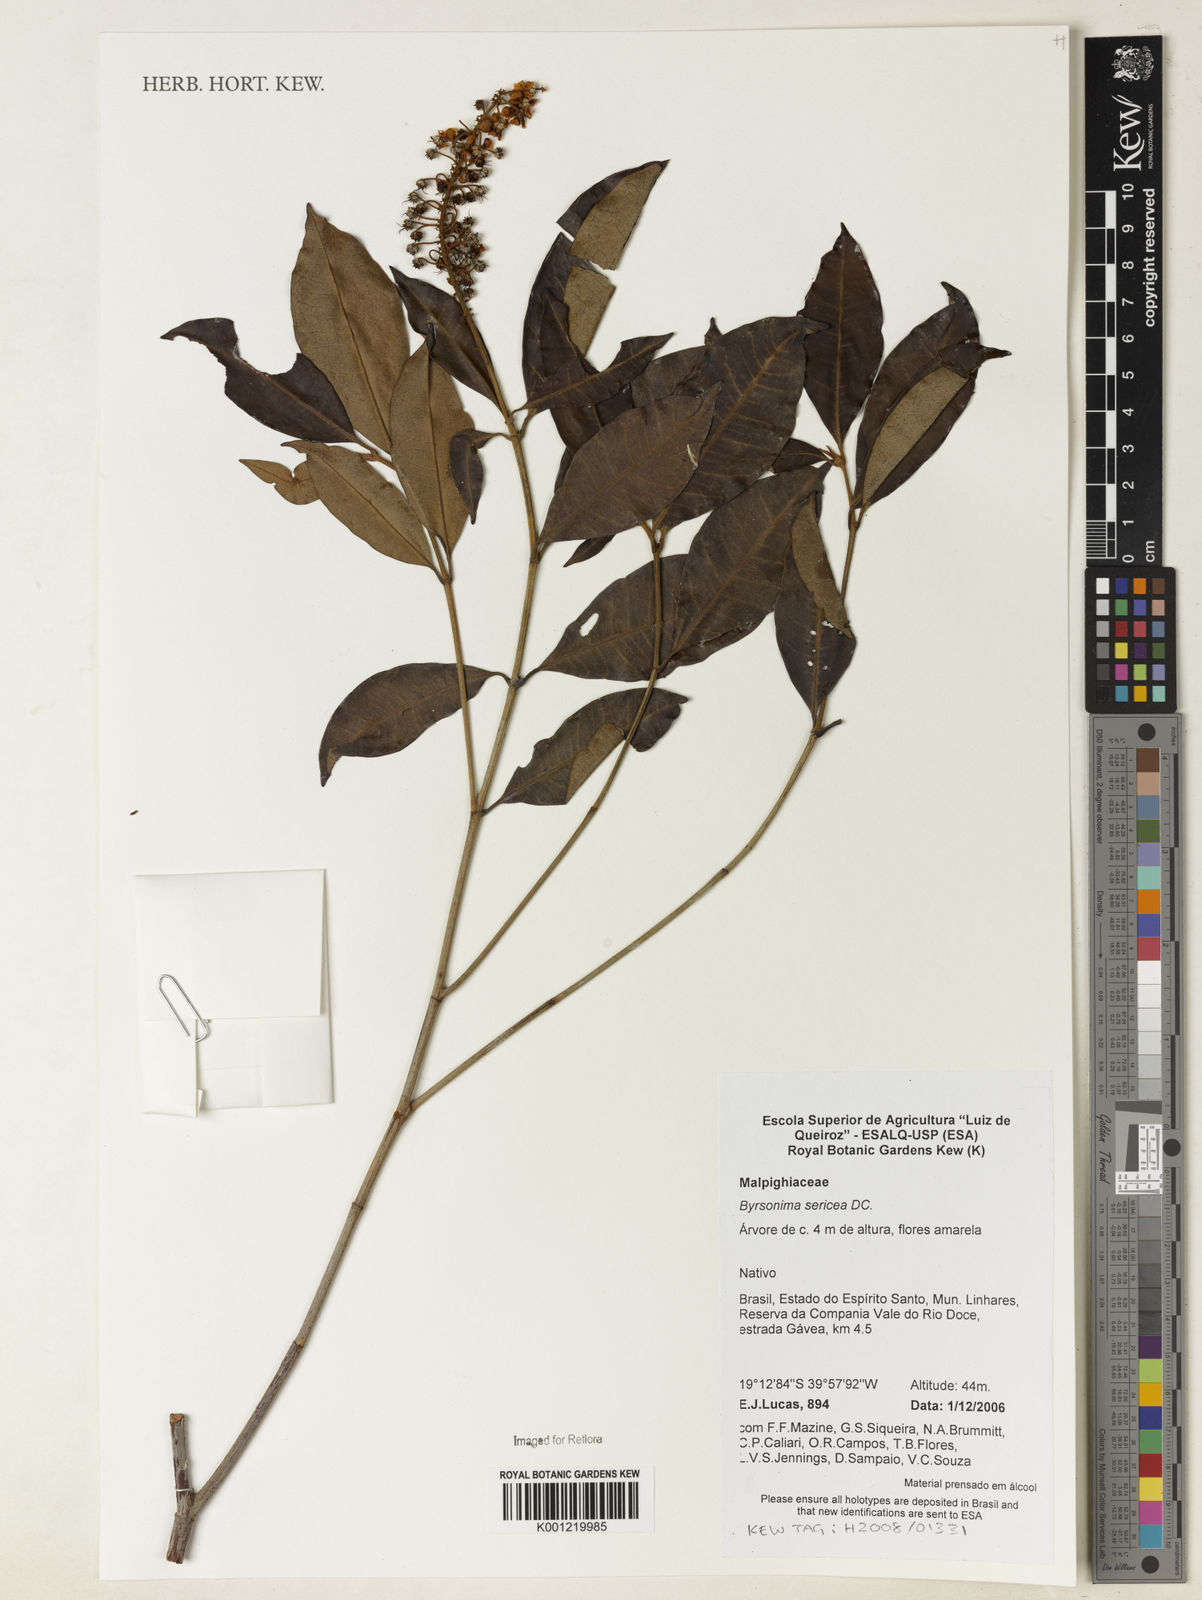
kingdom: Plantae
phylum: Tracheophyta
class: Magnoliopsida
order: Malpighiales
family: Malpighiaceae
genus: Byrsonima
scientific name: Byrsonima sericea
